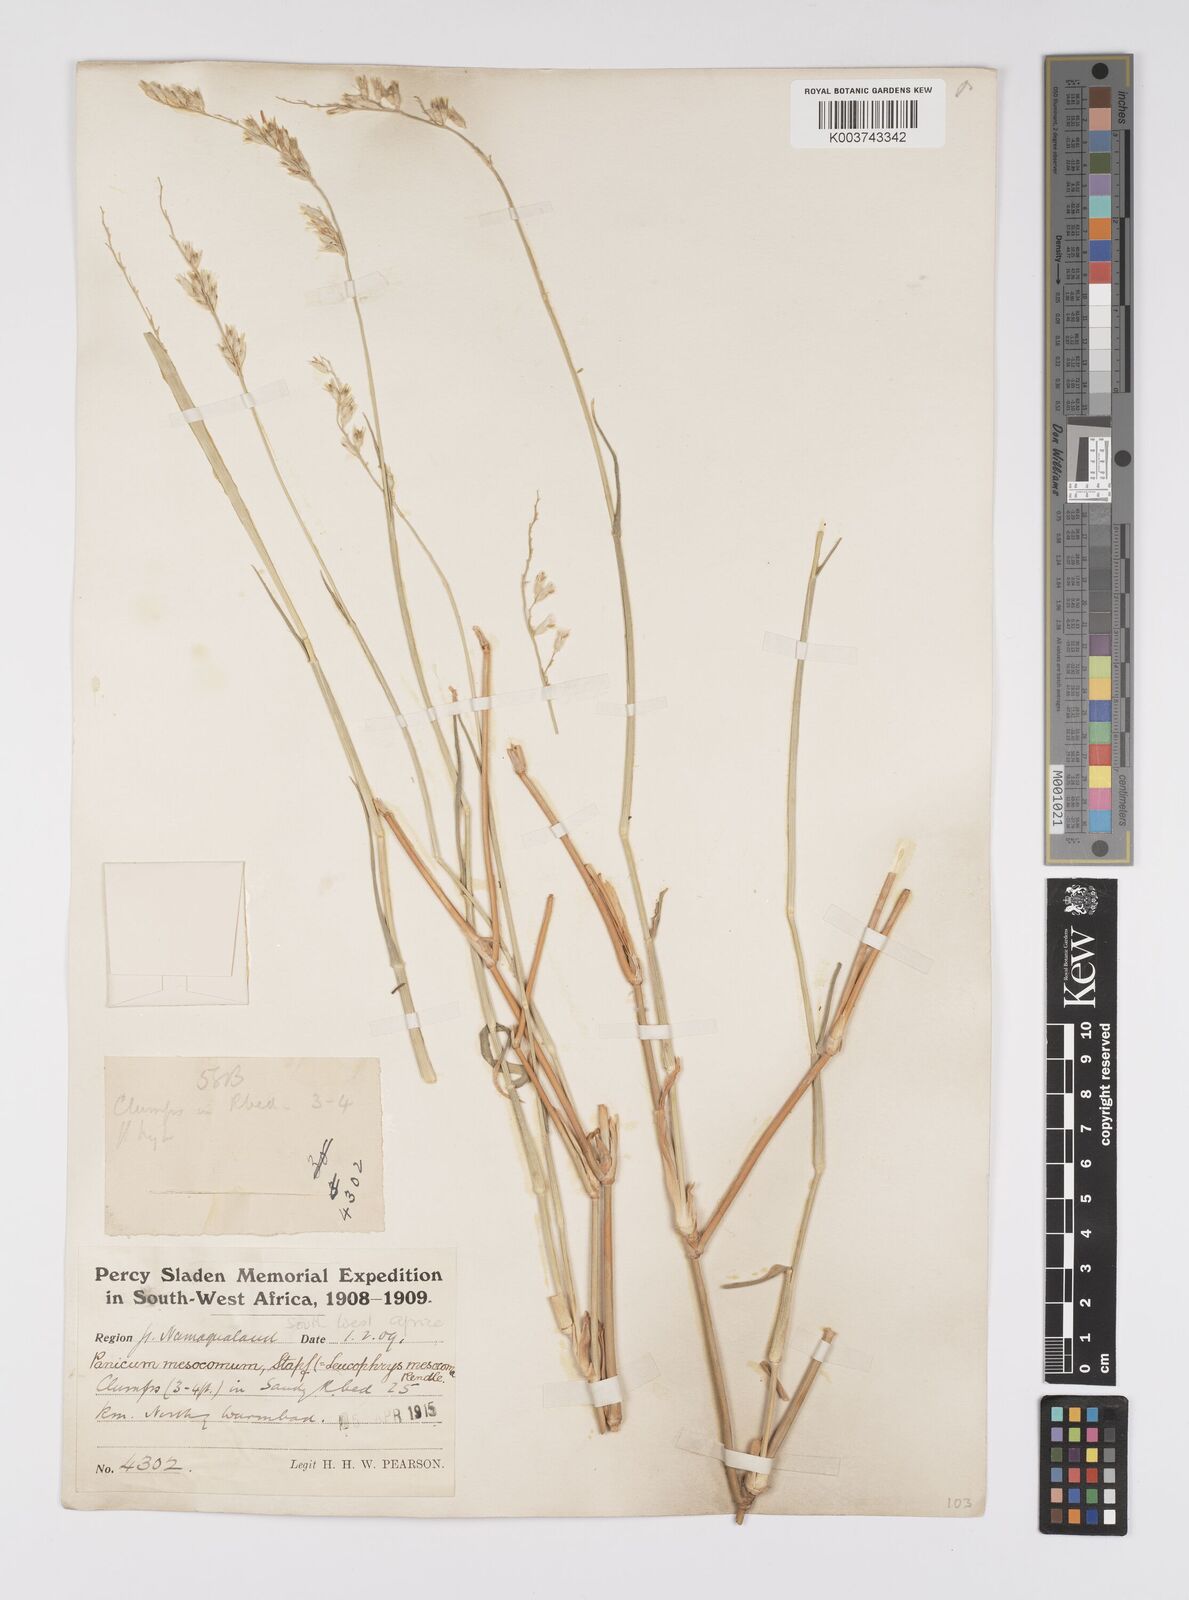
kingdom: Plantae
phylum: Tracheophyta
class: Liliopsida
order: Poales
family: Poaceae
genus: Urochloa
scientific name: Urochloa Brachiaria mesocoma
